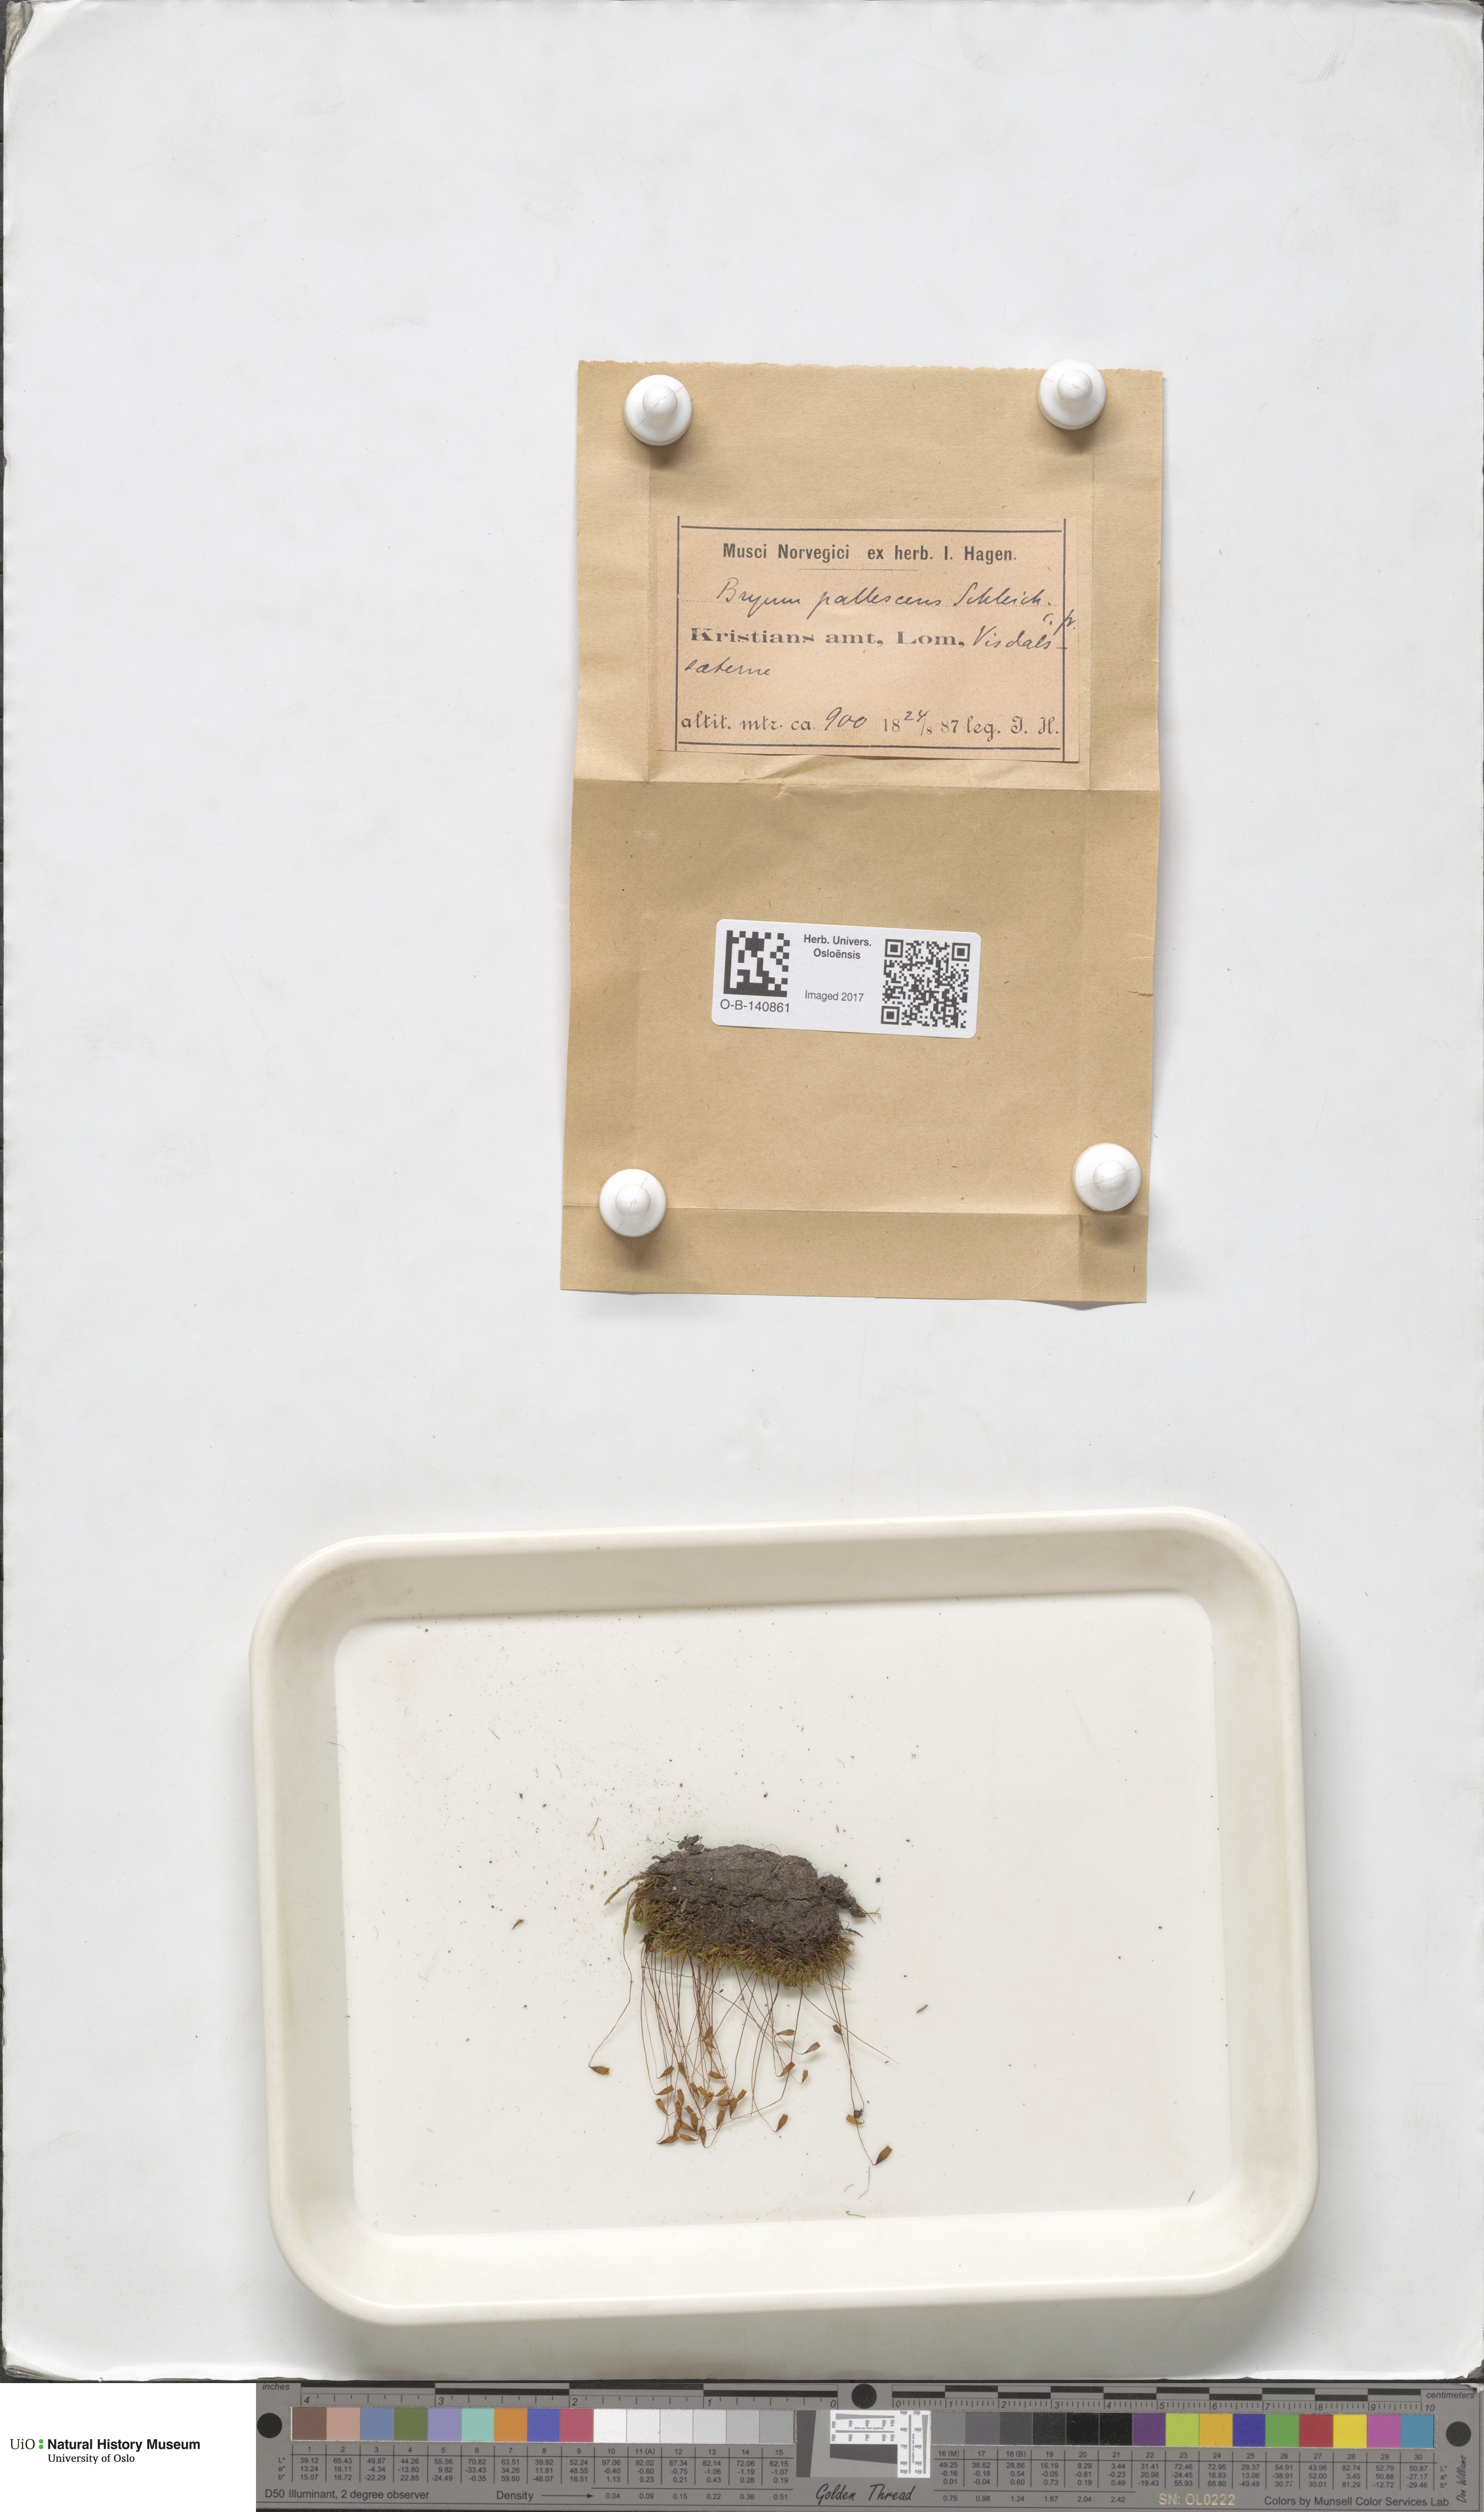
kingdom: Plantae
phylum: Bryophyta
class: Bryopsida
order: Bryales
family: Bryaceae
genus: Ptychostomum
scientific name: Ptychostomum pallescens
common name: Tall-clustered thread-moss
